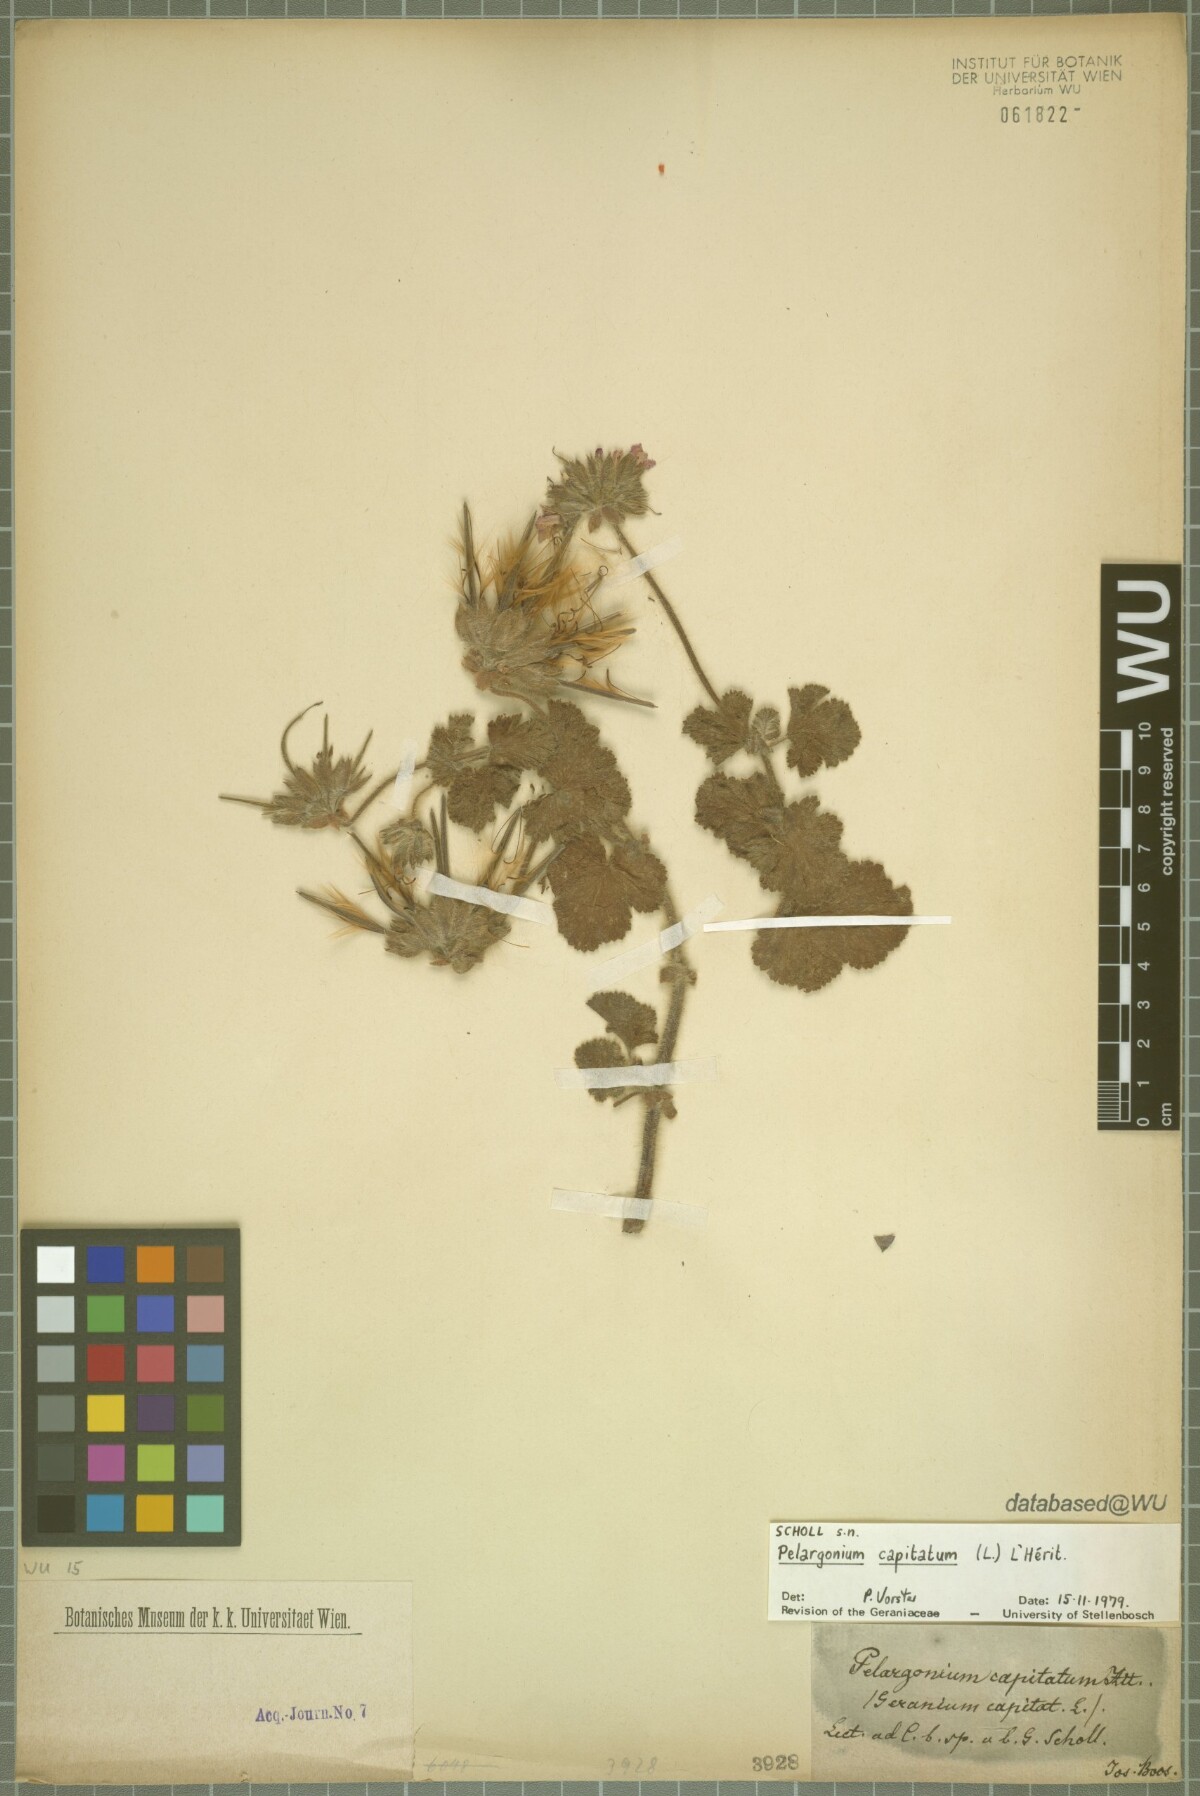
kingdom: Plantae
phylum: Tracheophyta
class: Magnoliopsida
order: Geraniales
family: Geraniaceae
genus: Pelargonium
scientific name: Pelargonium capitatum
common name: Rose scented geranium
